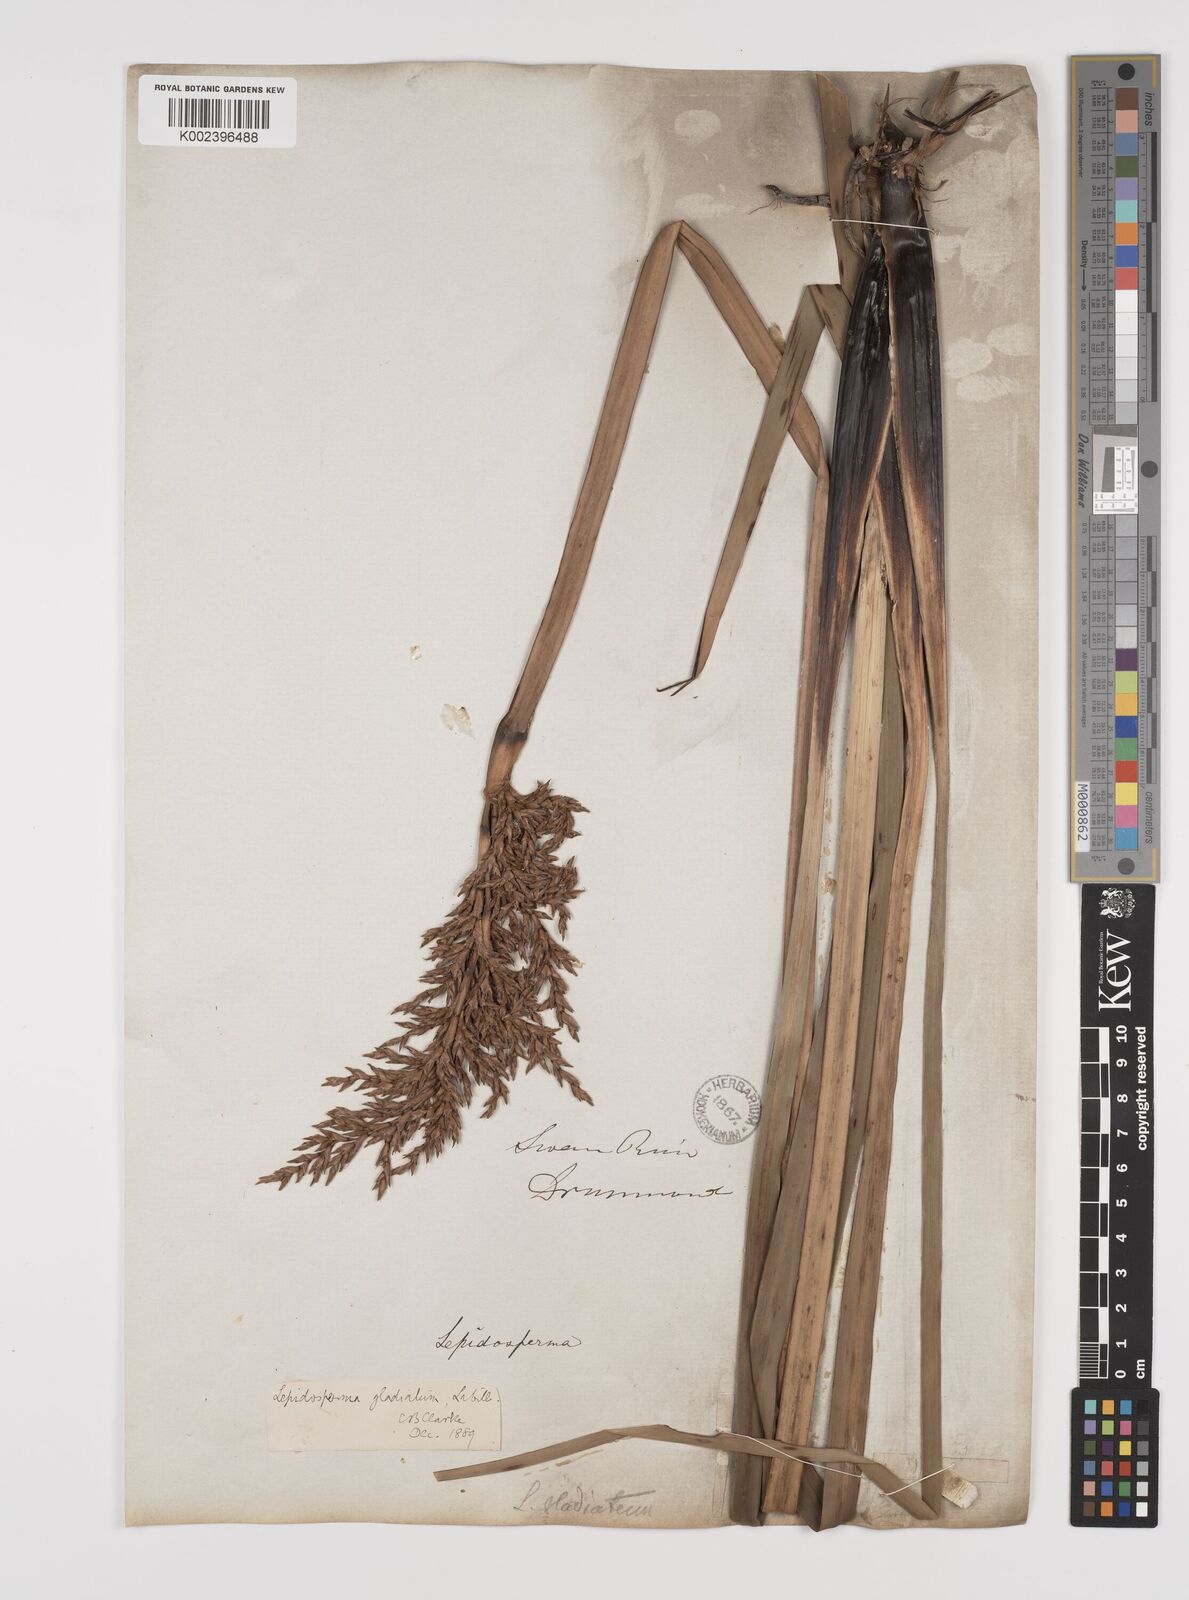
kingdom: Plantae
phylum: Tracheophyta
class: Liliopsida
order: Poales
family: Cyperaceae
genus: Lepidosperma
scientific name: Lepidosperma gladiatum
